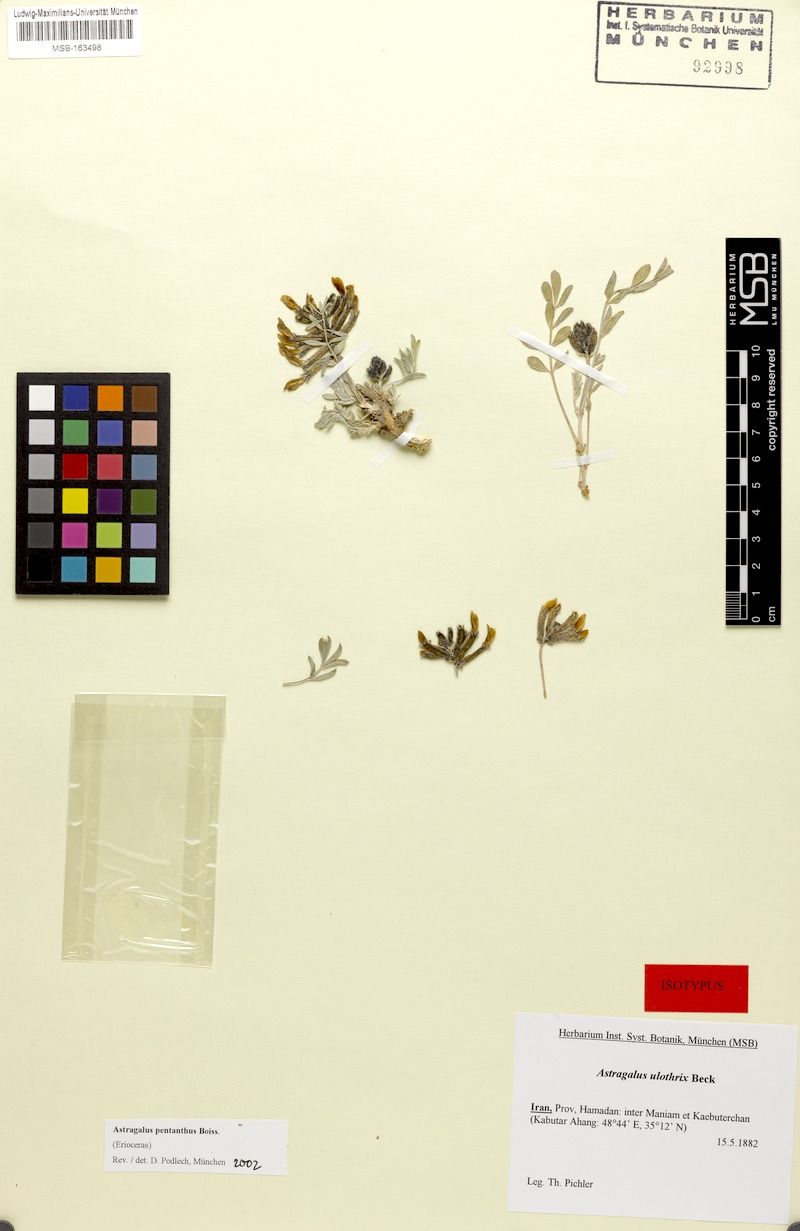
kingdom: Plantae
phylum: Tracheophyta
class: Magnoliopsida
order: Fabales
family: Fabaceae
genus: Astragalus
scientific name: Astragalus pentanthus
